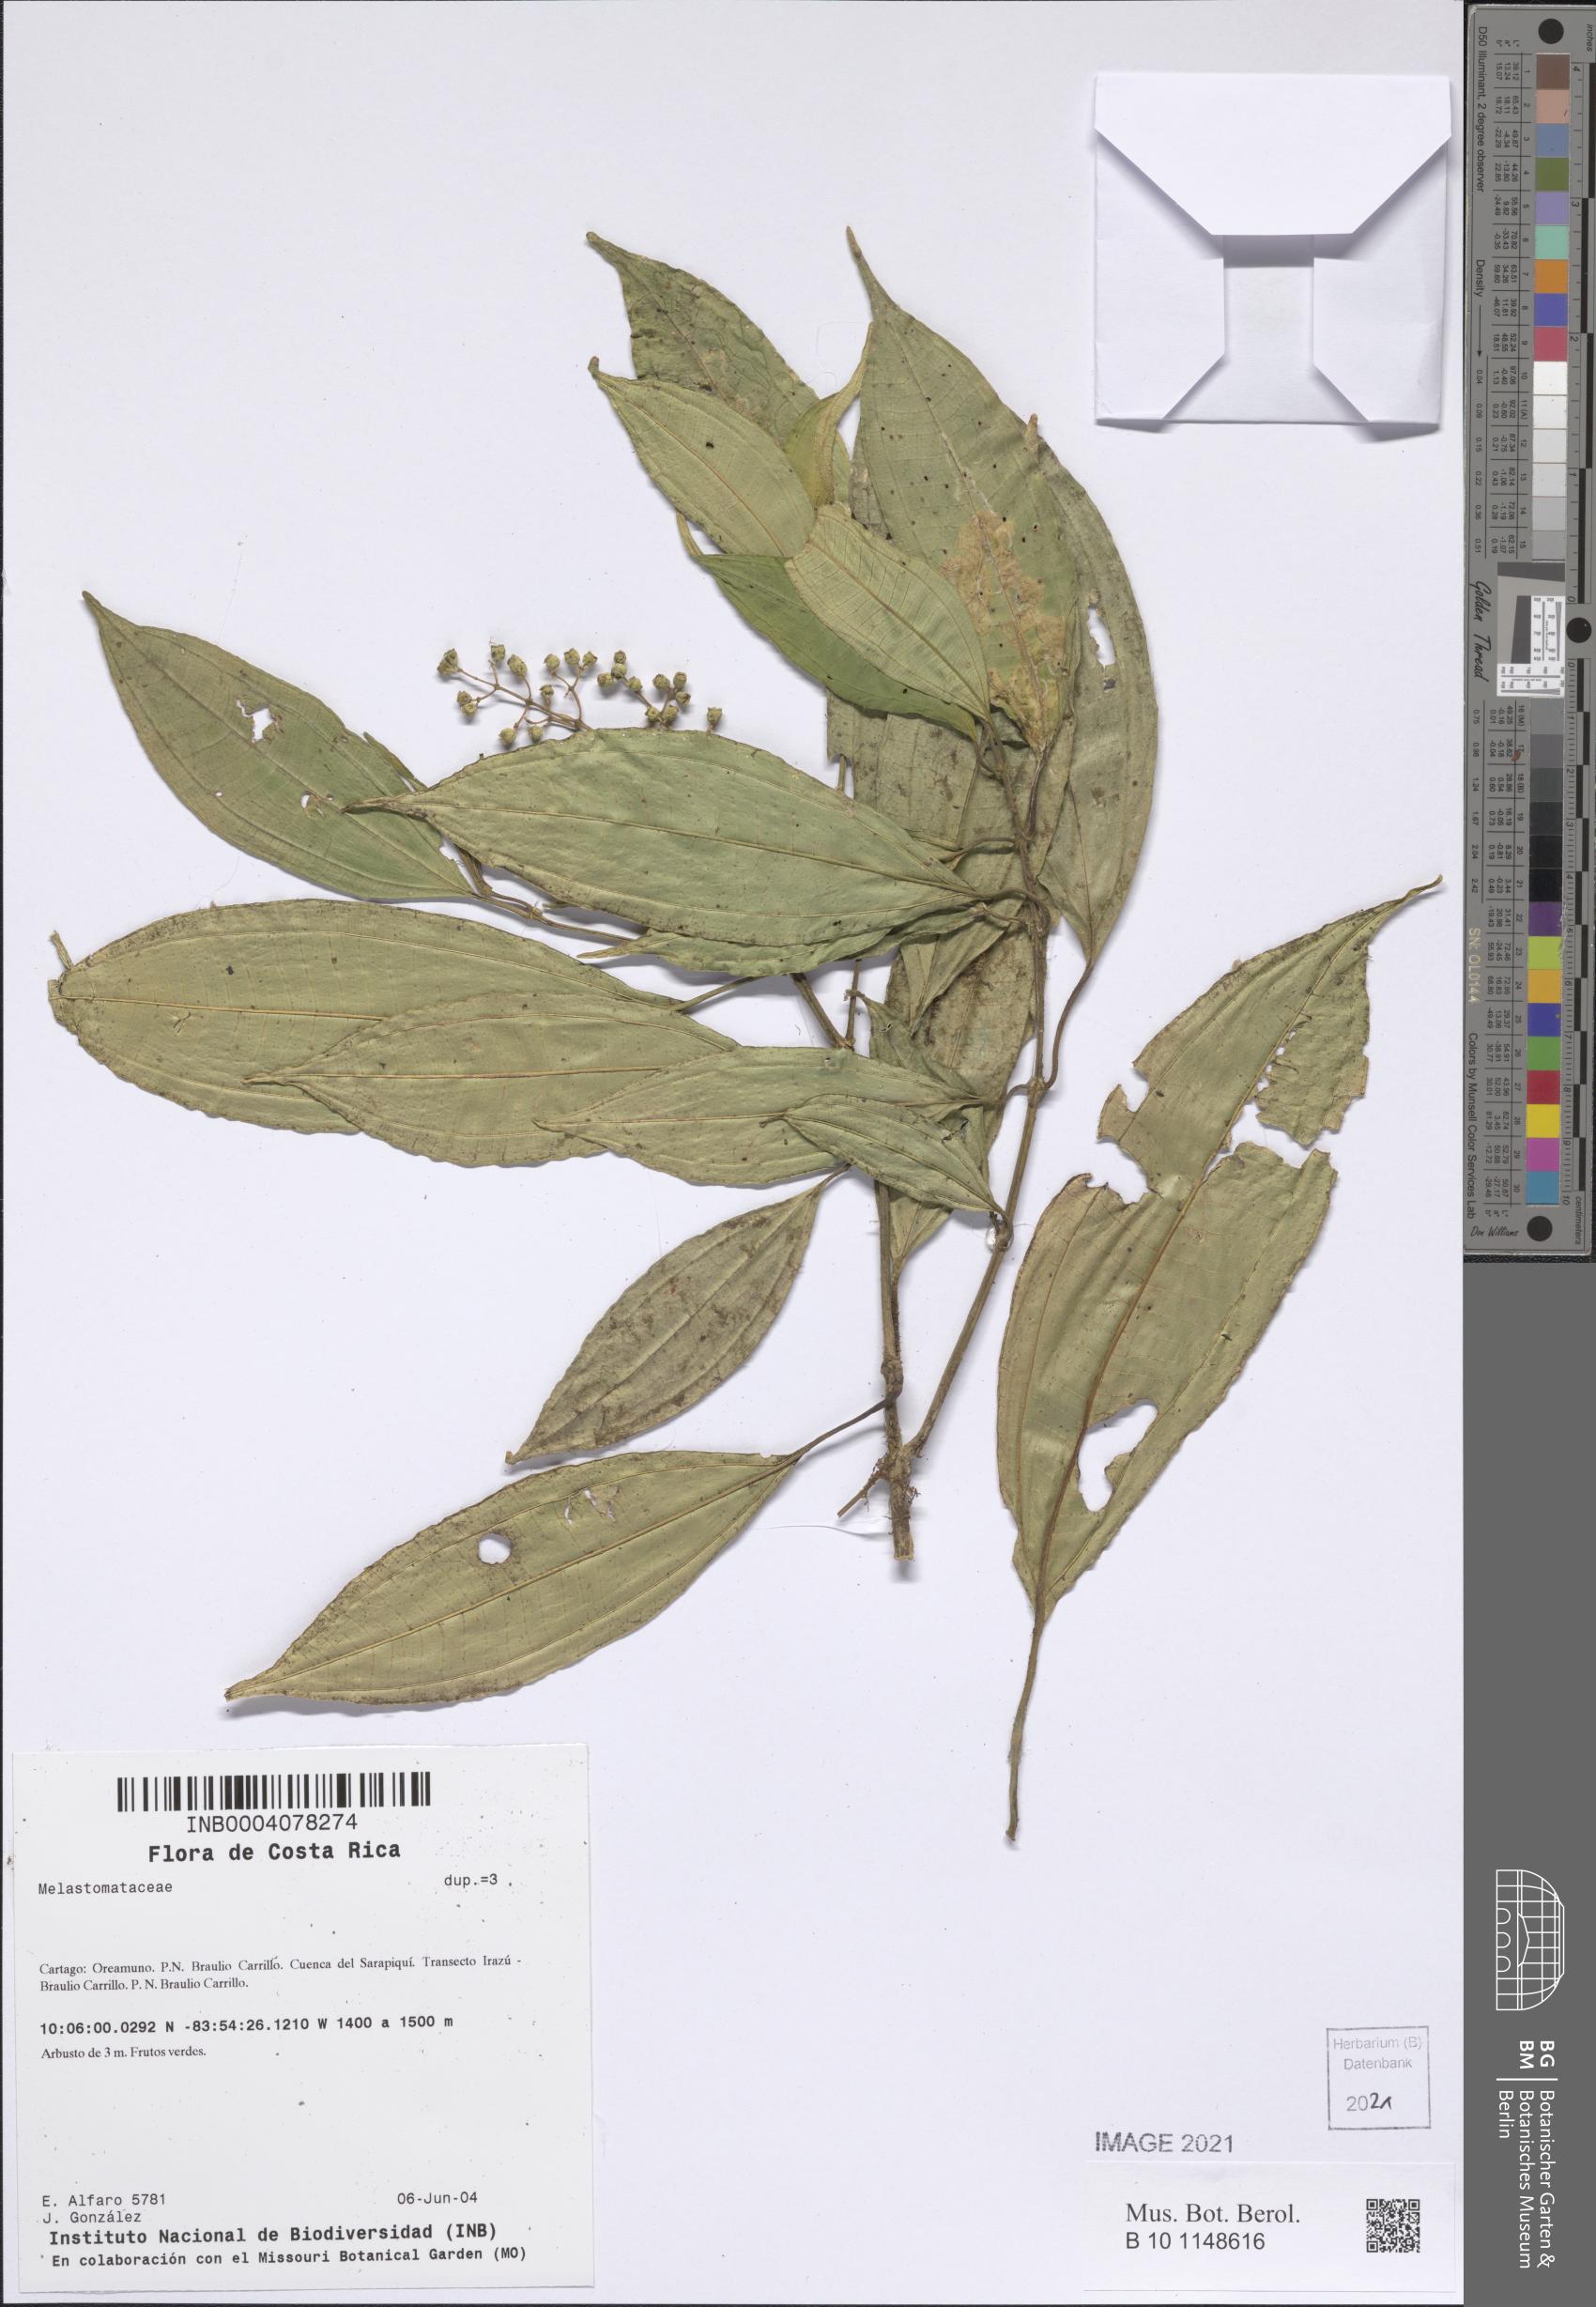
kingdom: Plantae
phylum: Tracheophyta
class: Magnoliopsida
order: Myrtales
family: Melastomataceae
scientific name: Melastomataceae
